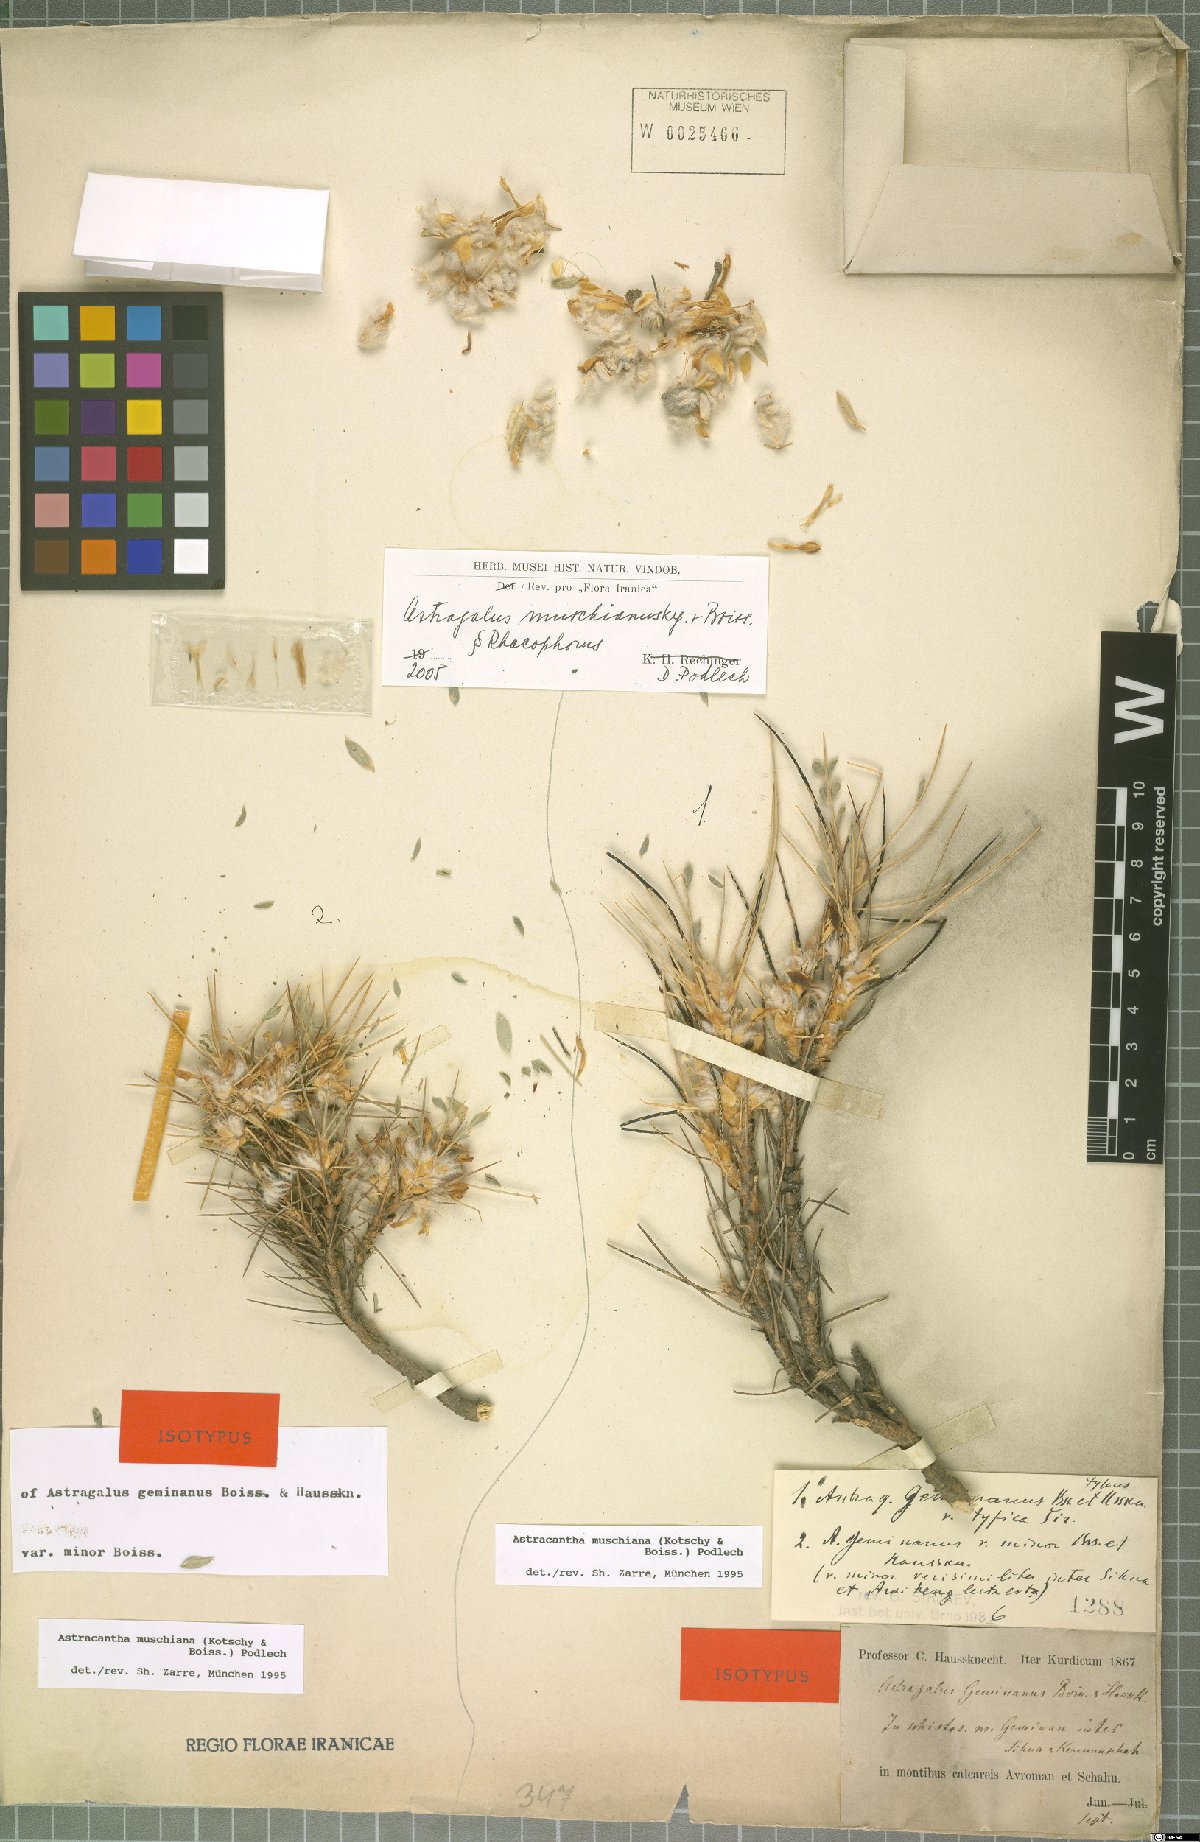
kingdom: Plantae
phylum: Tracheophyta
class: Magnoliopsida
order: Fabales
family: Fabaceae
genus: Astragalus
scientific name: Astragalus muschianus
